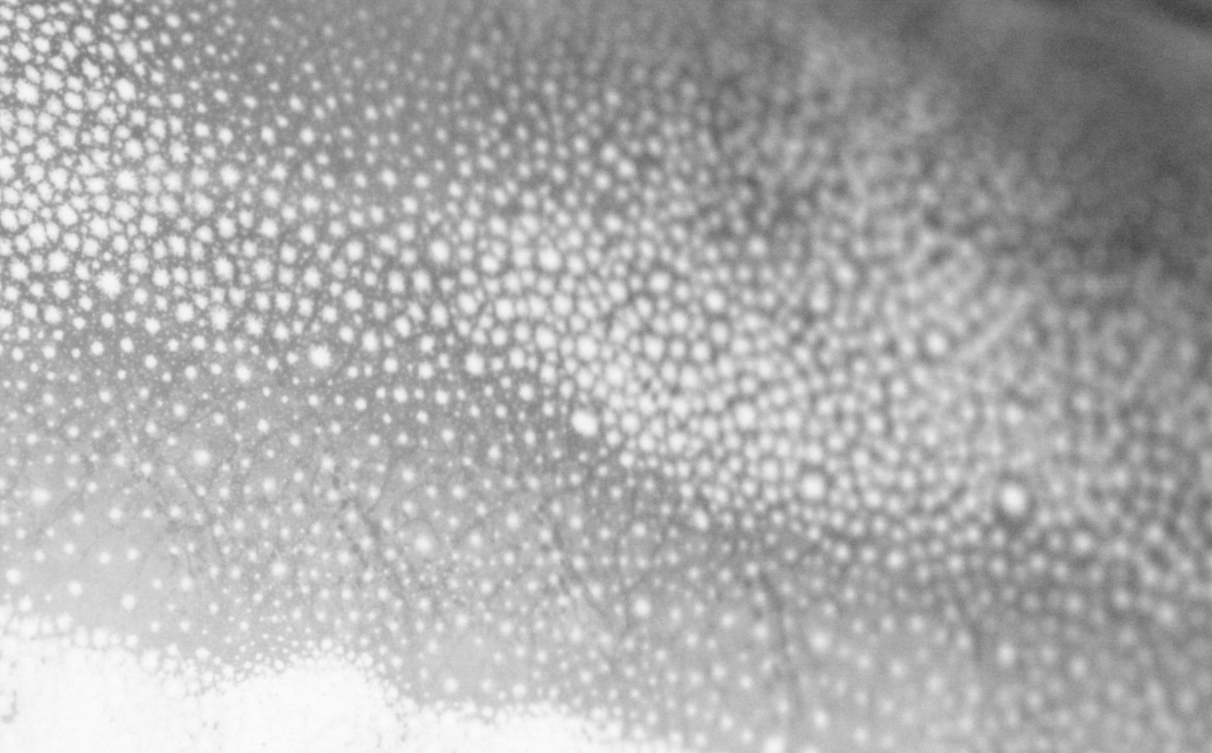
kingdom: Animalia
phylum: Chordata
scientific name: Chordata
